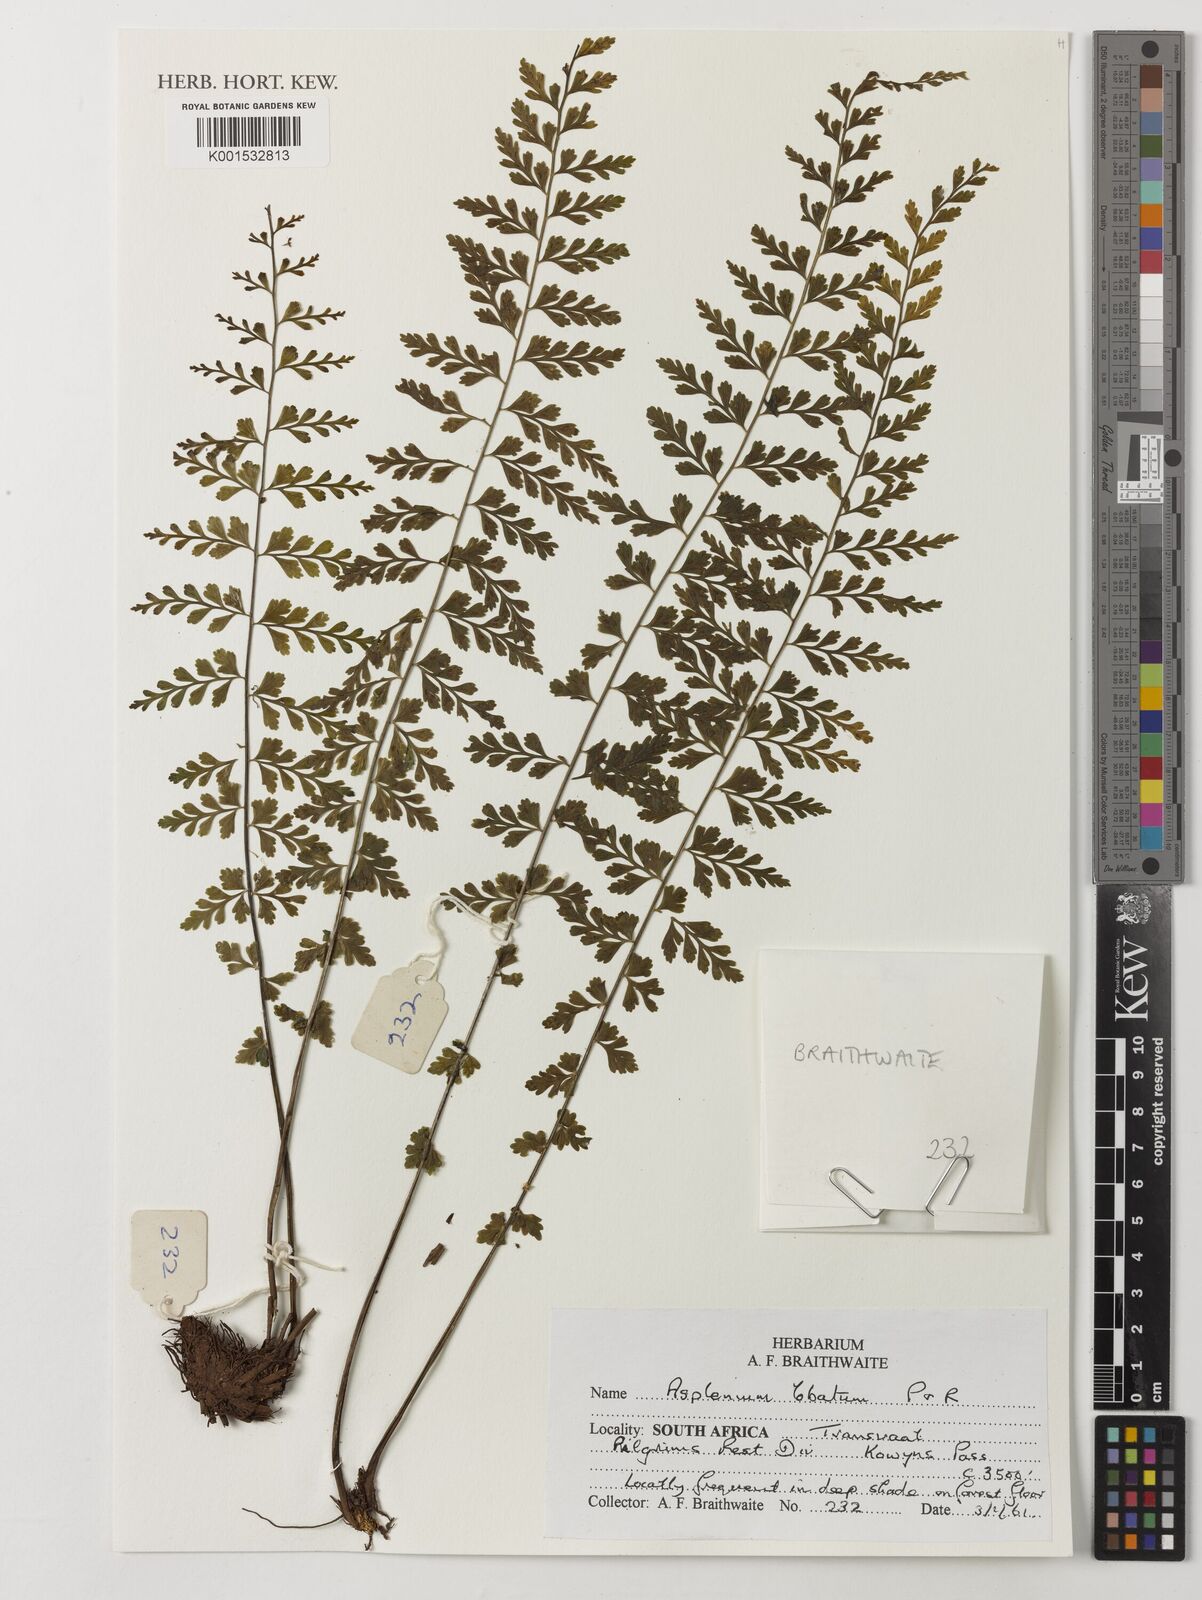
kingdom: Plantae
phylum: Tracheophyta
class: Polypodiopsida
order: Polypodiales
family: Aspleniaceae
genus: Asplenium
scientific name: Asplenium lobatum
